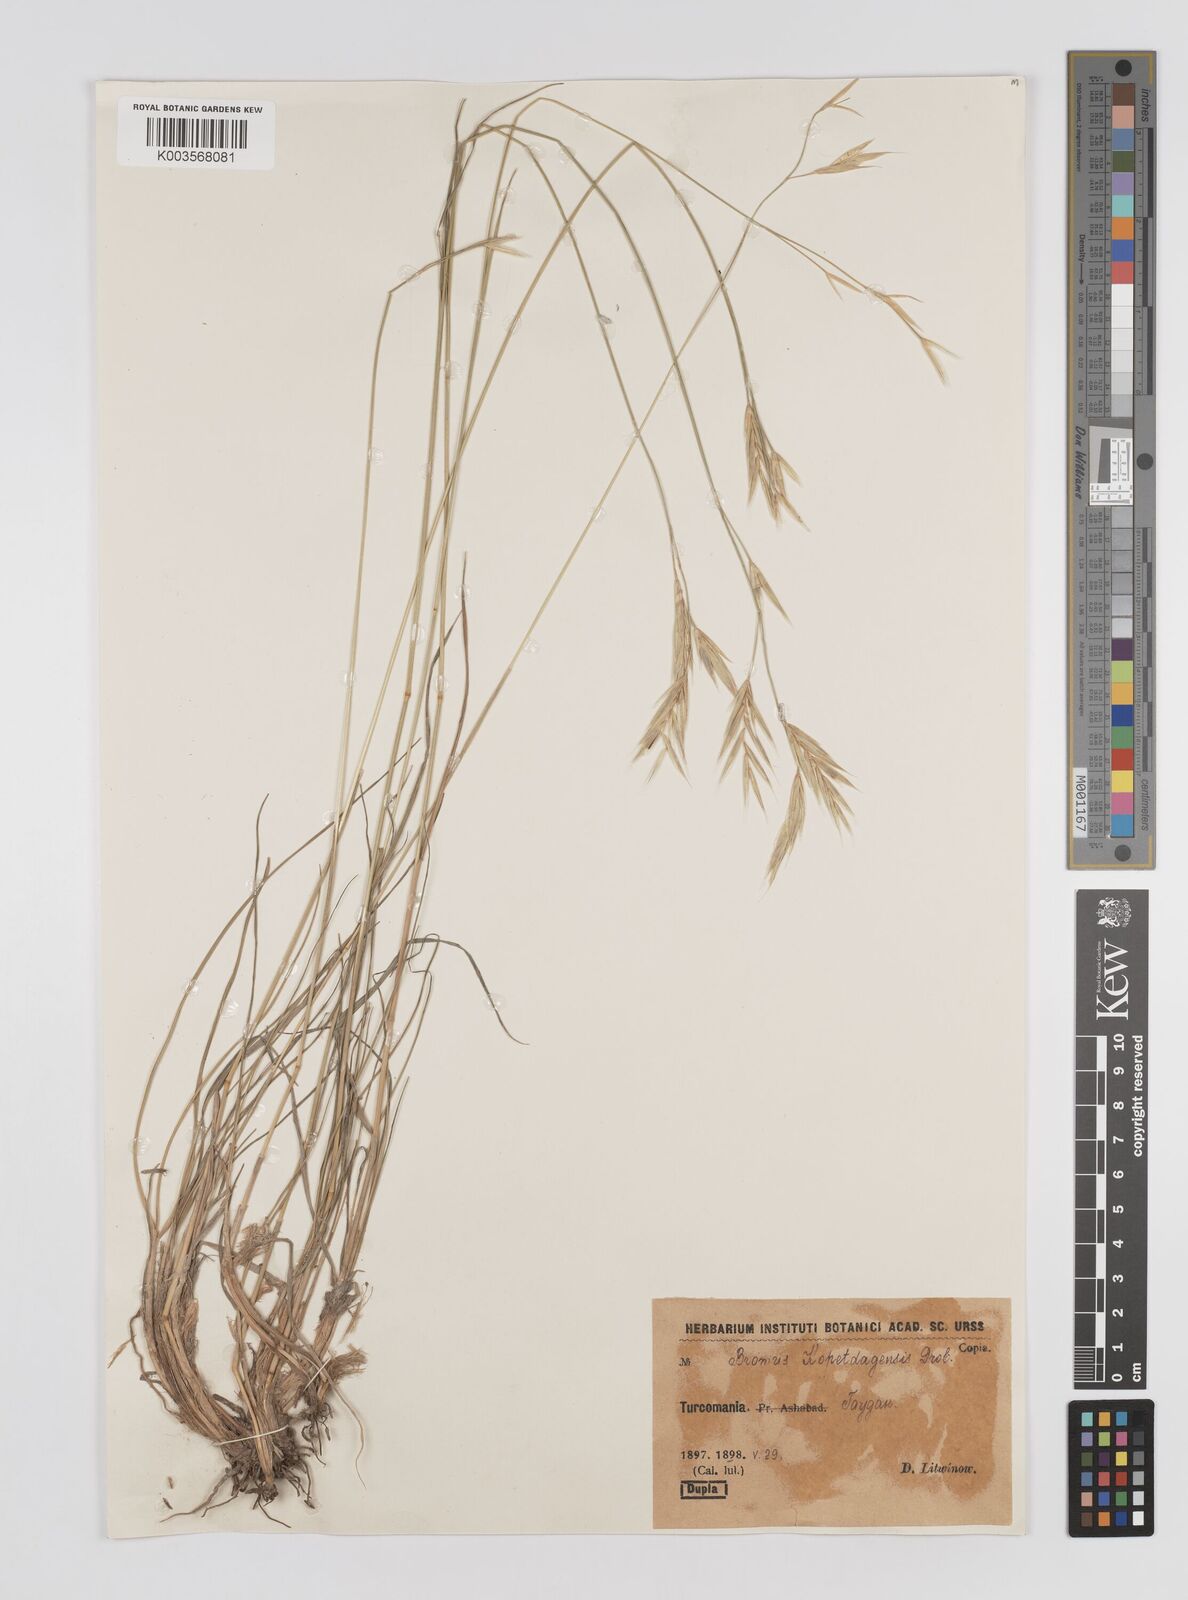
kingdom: Plantae
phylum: Tracheophyta
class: Liliopsida
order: Poales
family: Poaceae
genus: Bromus
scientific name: Bromus kopetdagensis
